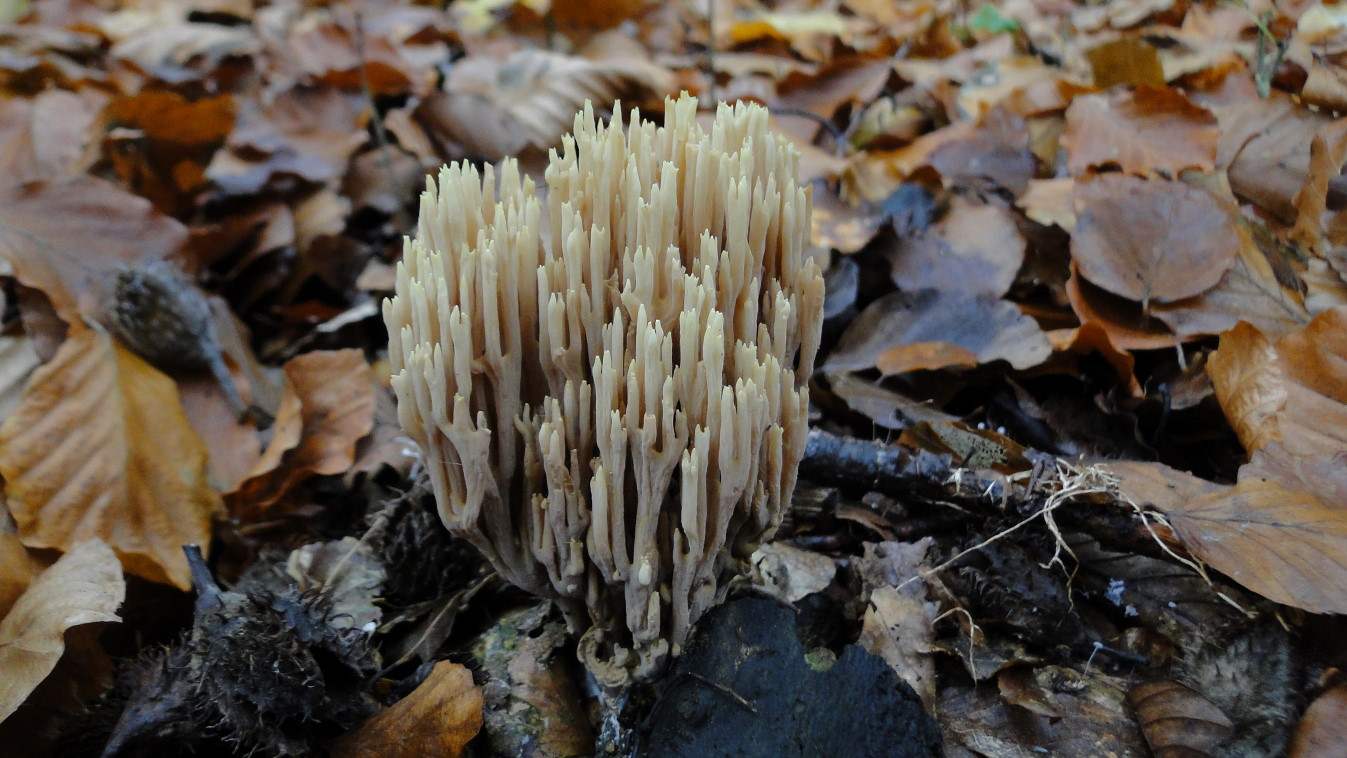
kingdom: Fungi
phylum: Basidiomycota
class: Agaricomycetes
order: Gomphales
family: Gomphaceae
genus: Ramaria
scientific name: Ramaria stricta
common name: rank koralsvamp
